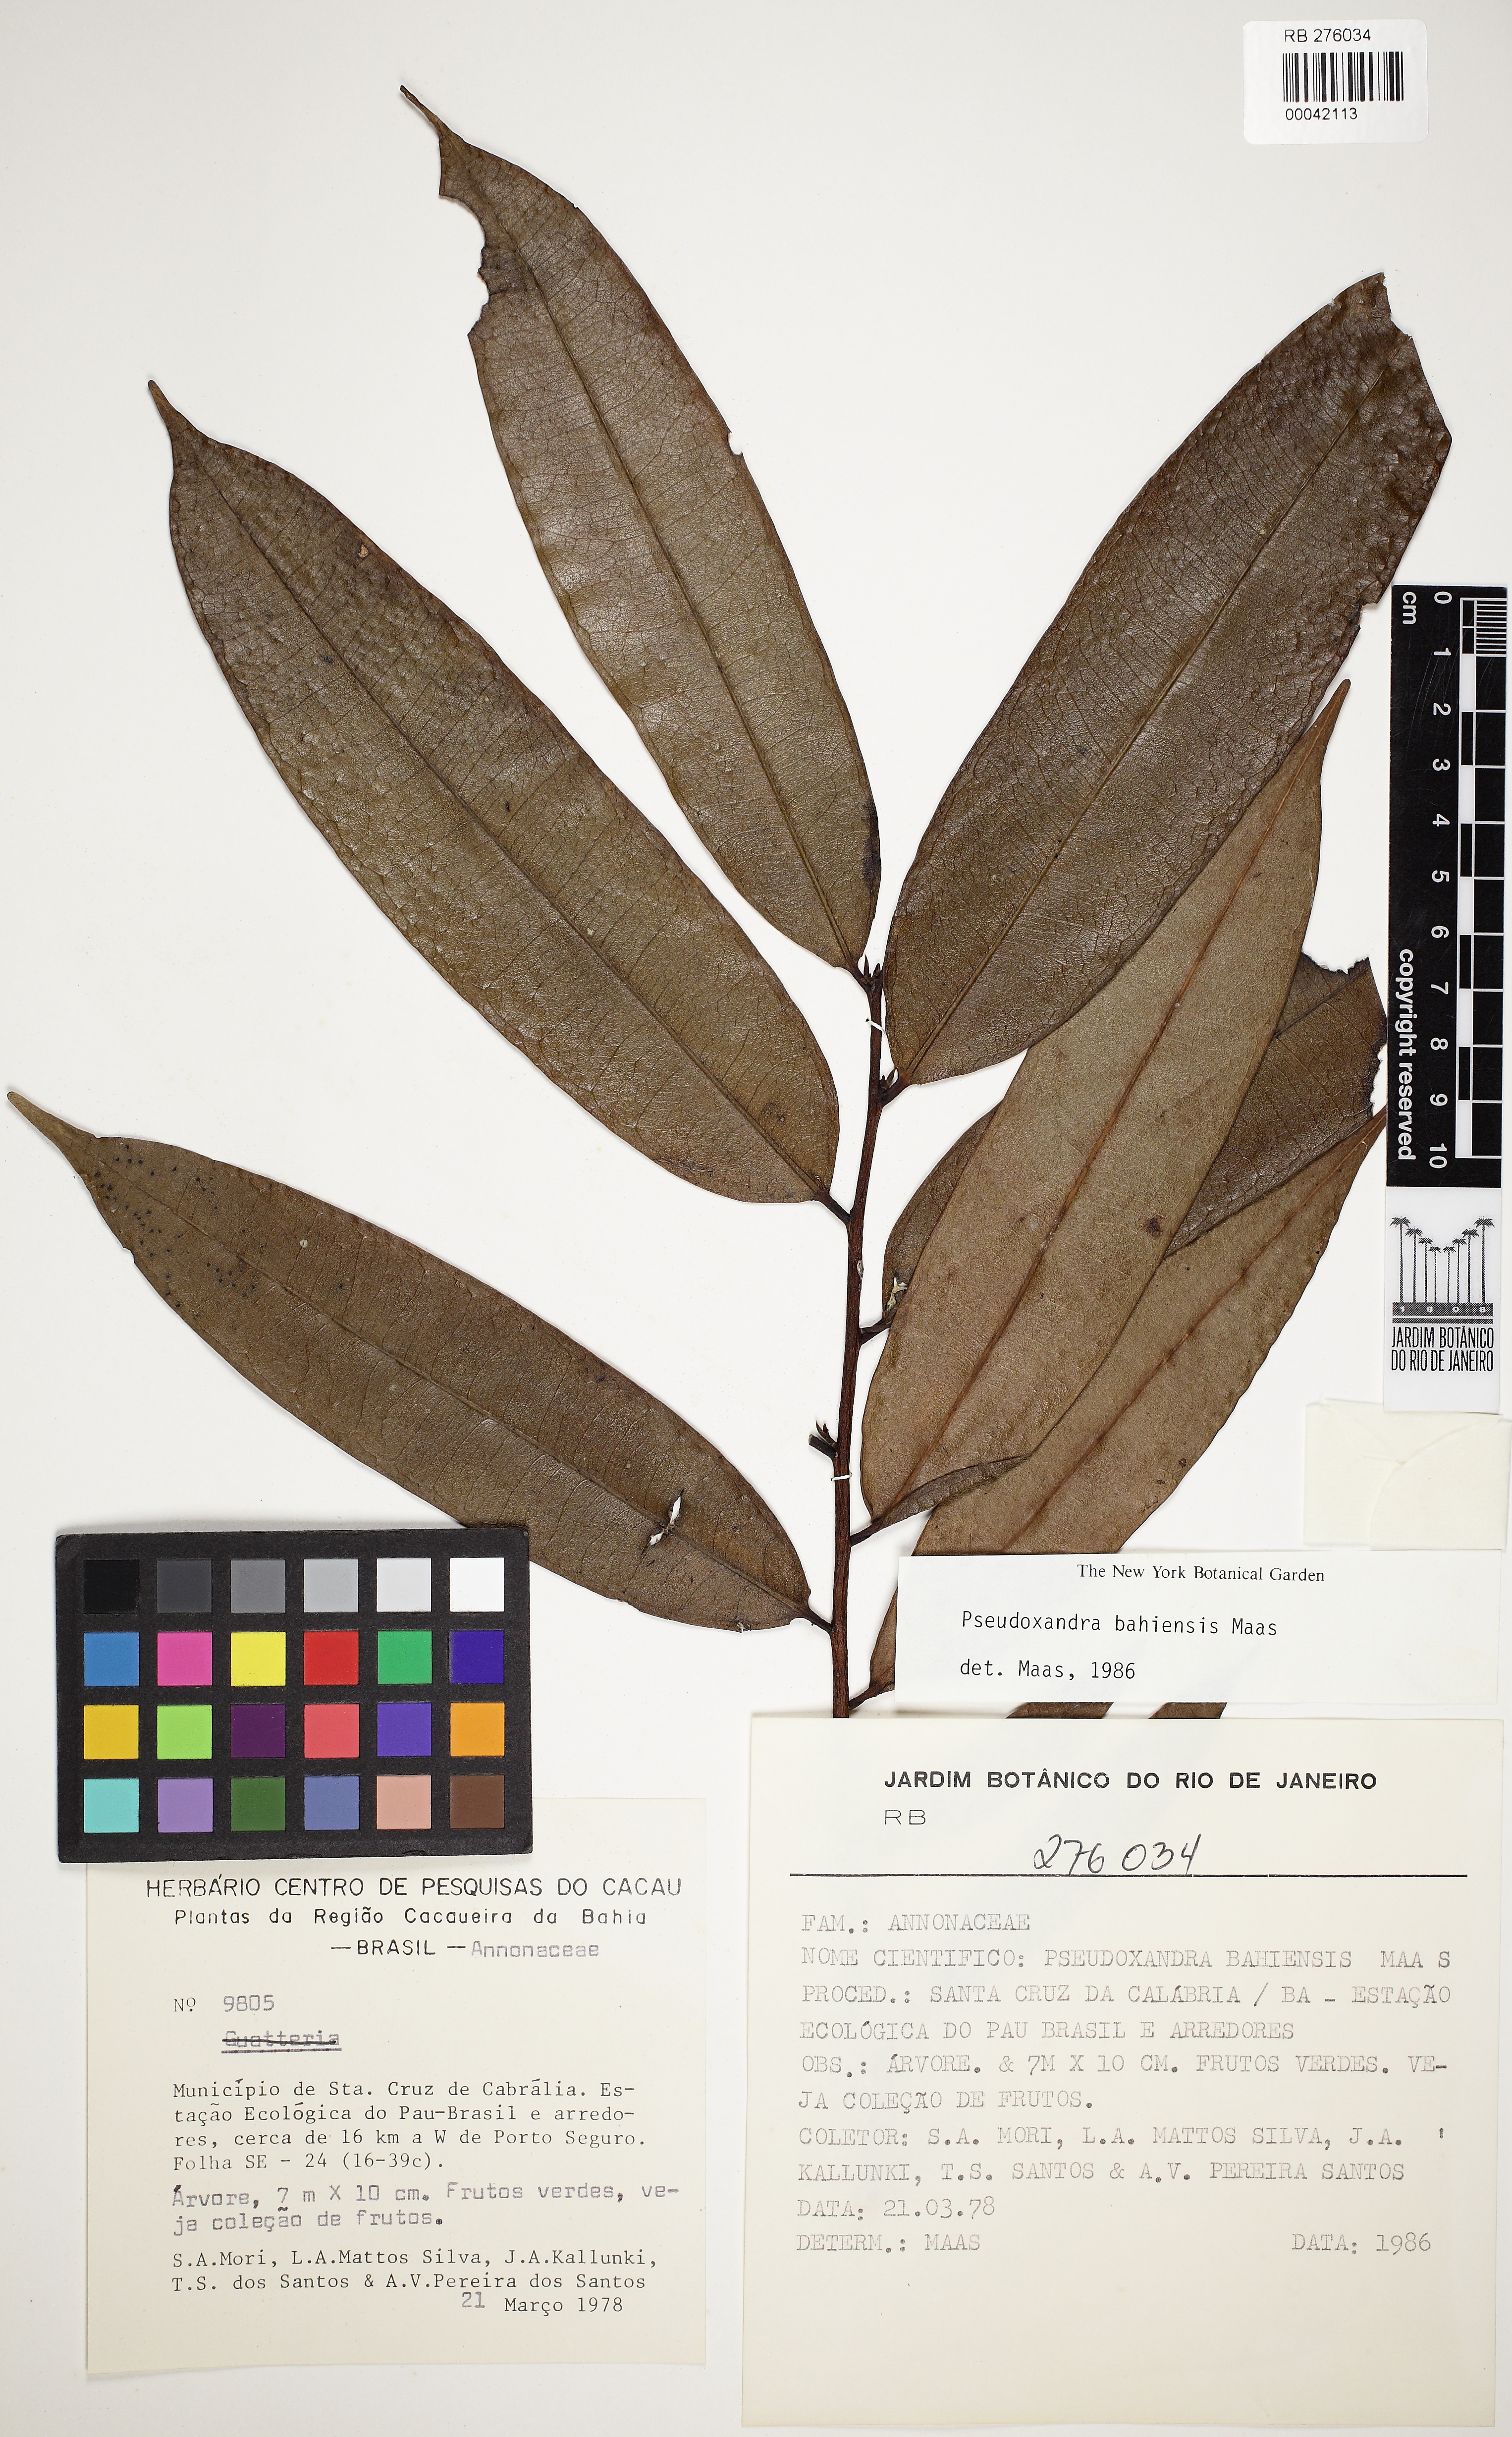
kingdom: Plantae
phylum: Tracheophyta
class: Magnoliopsida
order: Magnoliales
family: Annonaceae
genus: Pseudoxandra
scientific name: Pseudoxandra bahiensis
